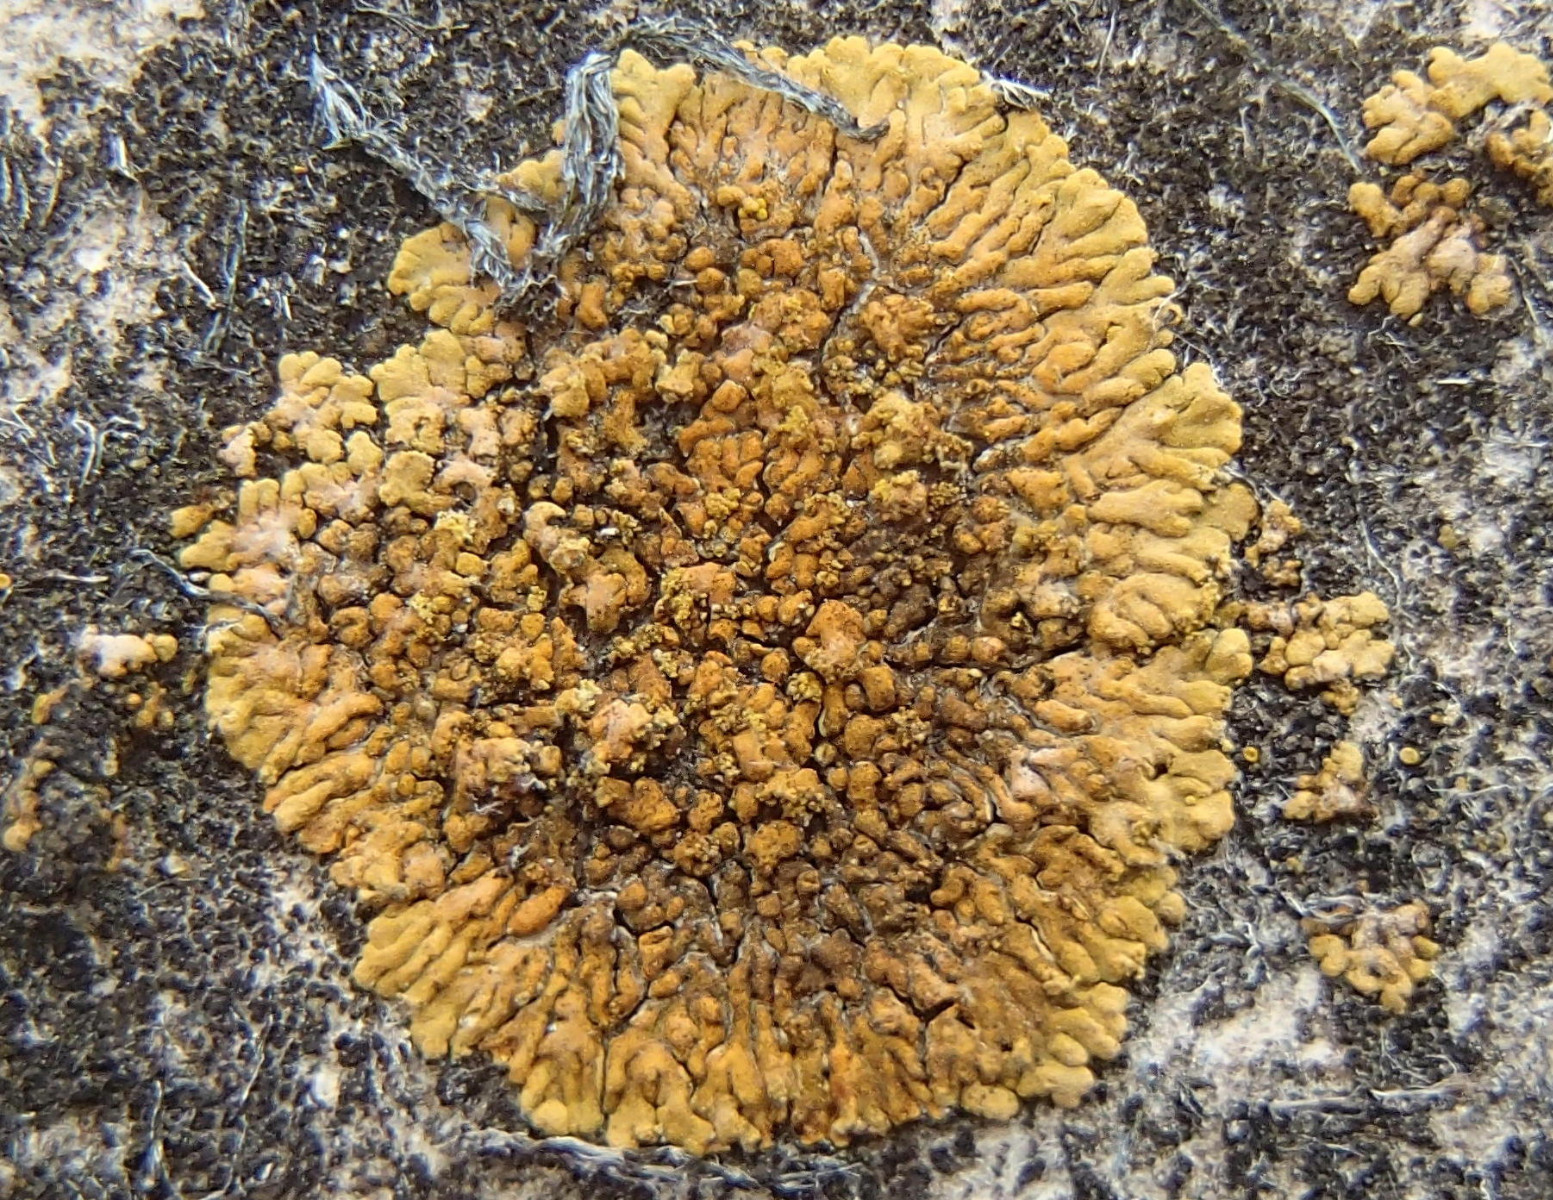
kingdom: Fungi
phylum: Ascomycota
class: Lecanoromycetes
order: Teloschistales
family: Teloschistaceae
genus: Calogaya
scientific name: Calogaya decipiens
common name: knudret orangelav
